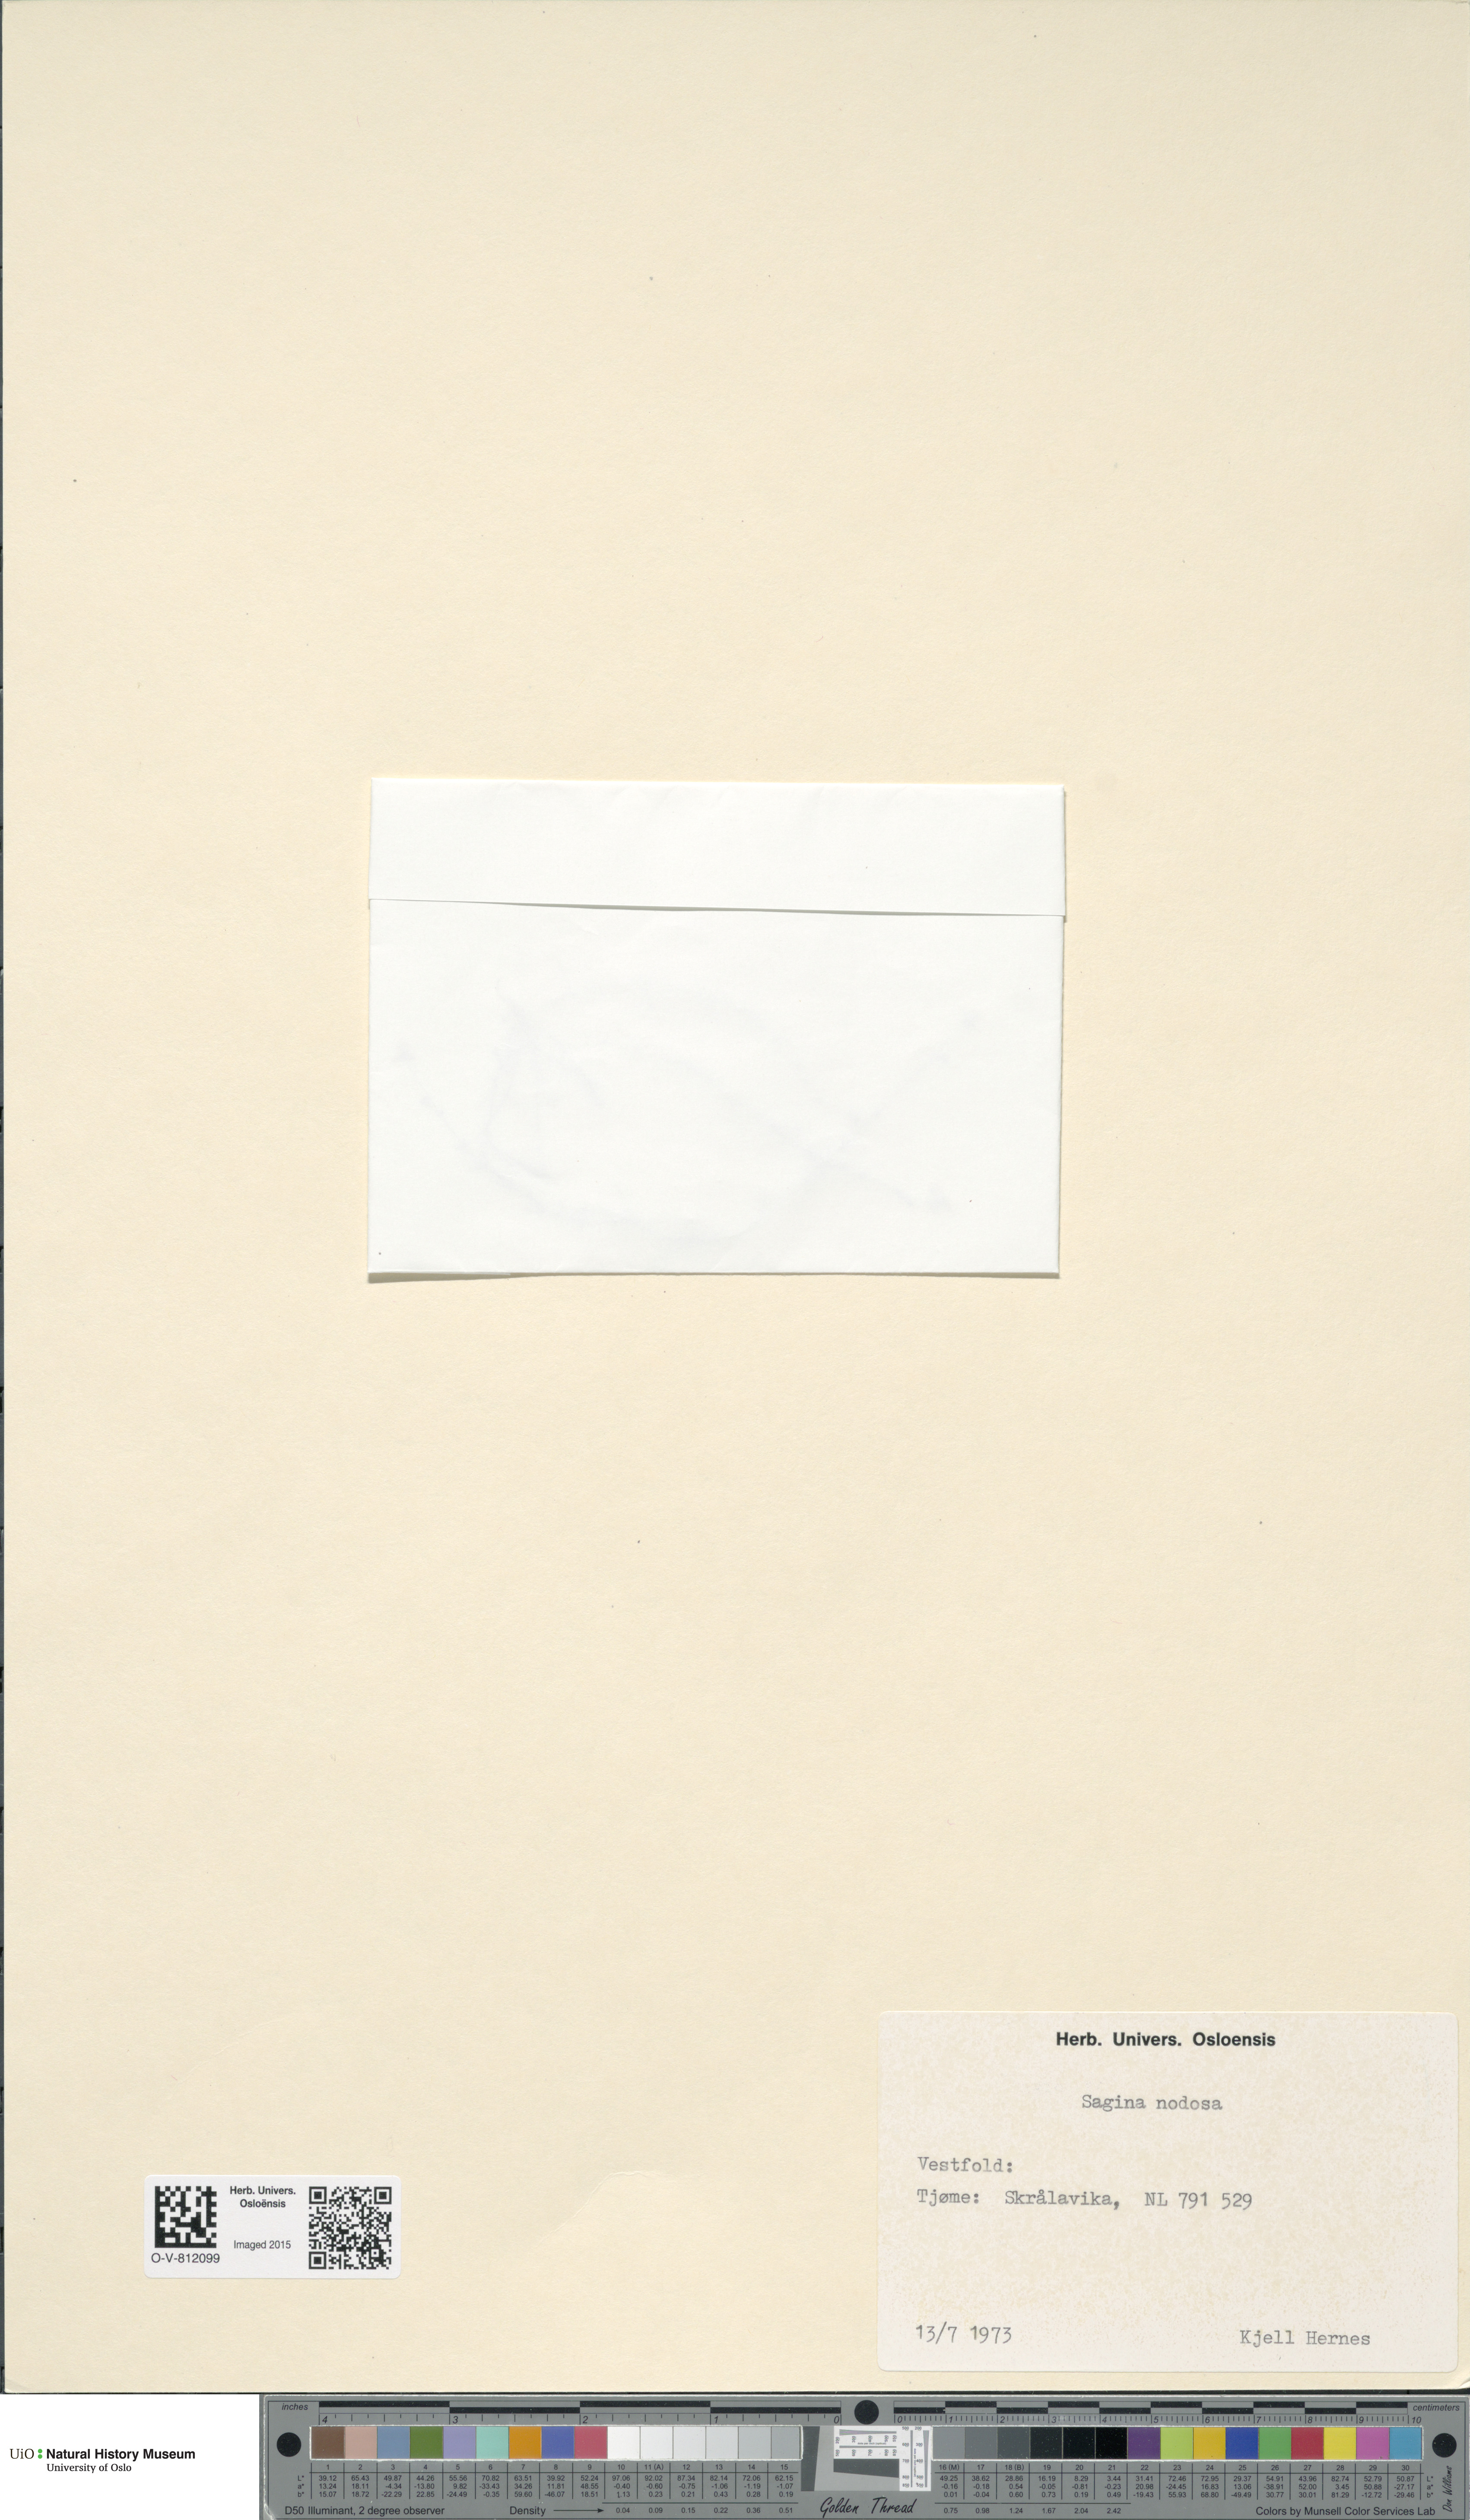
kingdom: Plantae
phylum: Tracheophyta
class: Magnoliopsida
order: Caryophyllales
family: Caryophyllaceae
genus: Sagina
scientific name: Sagina nodosa
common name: Knotted pearlwort
